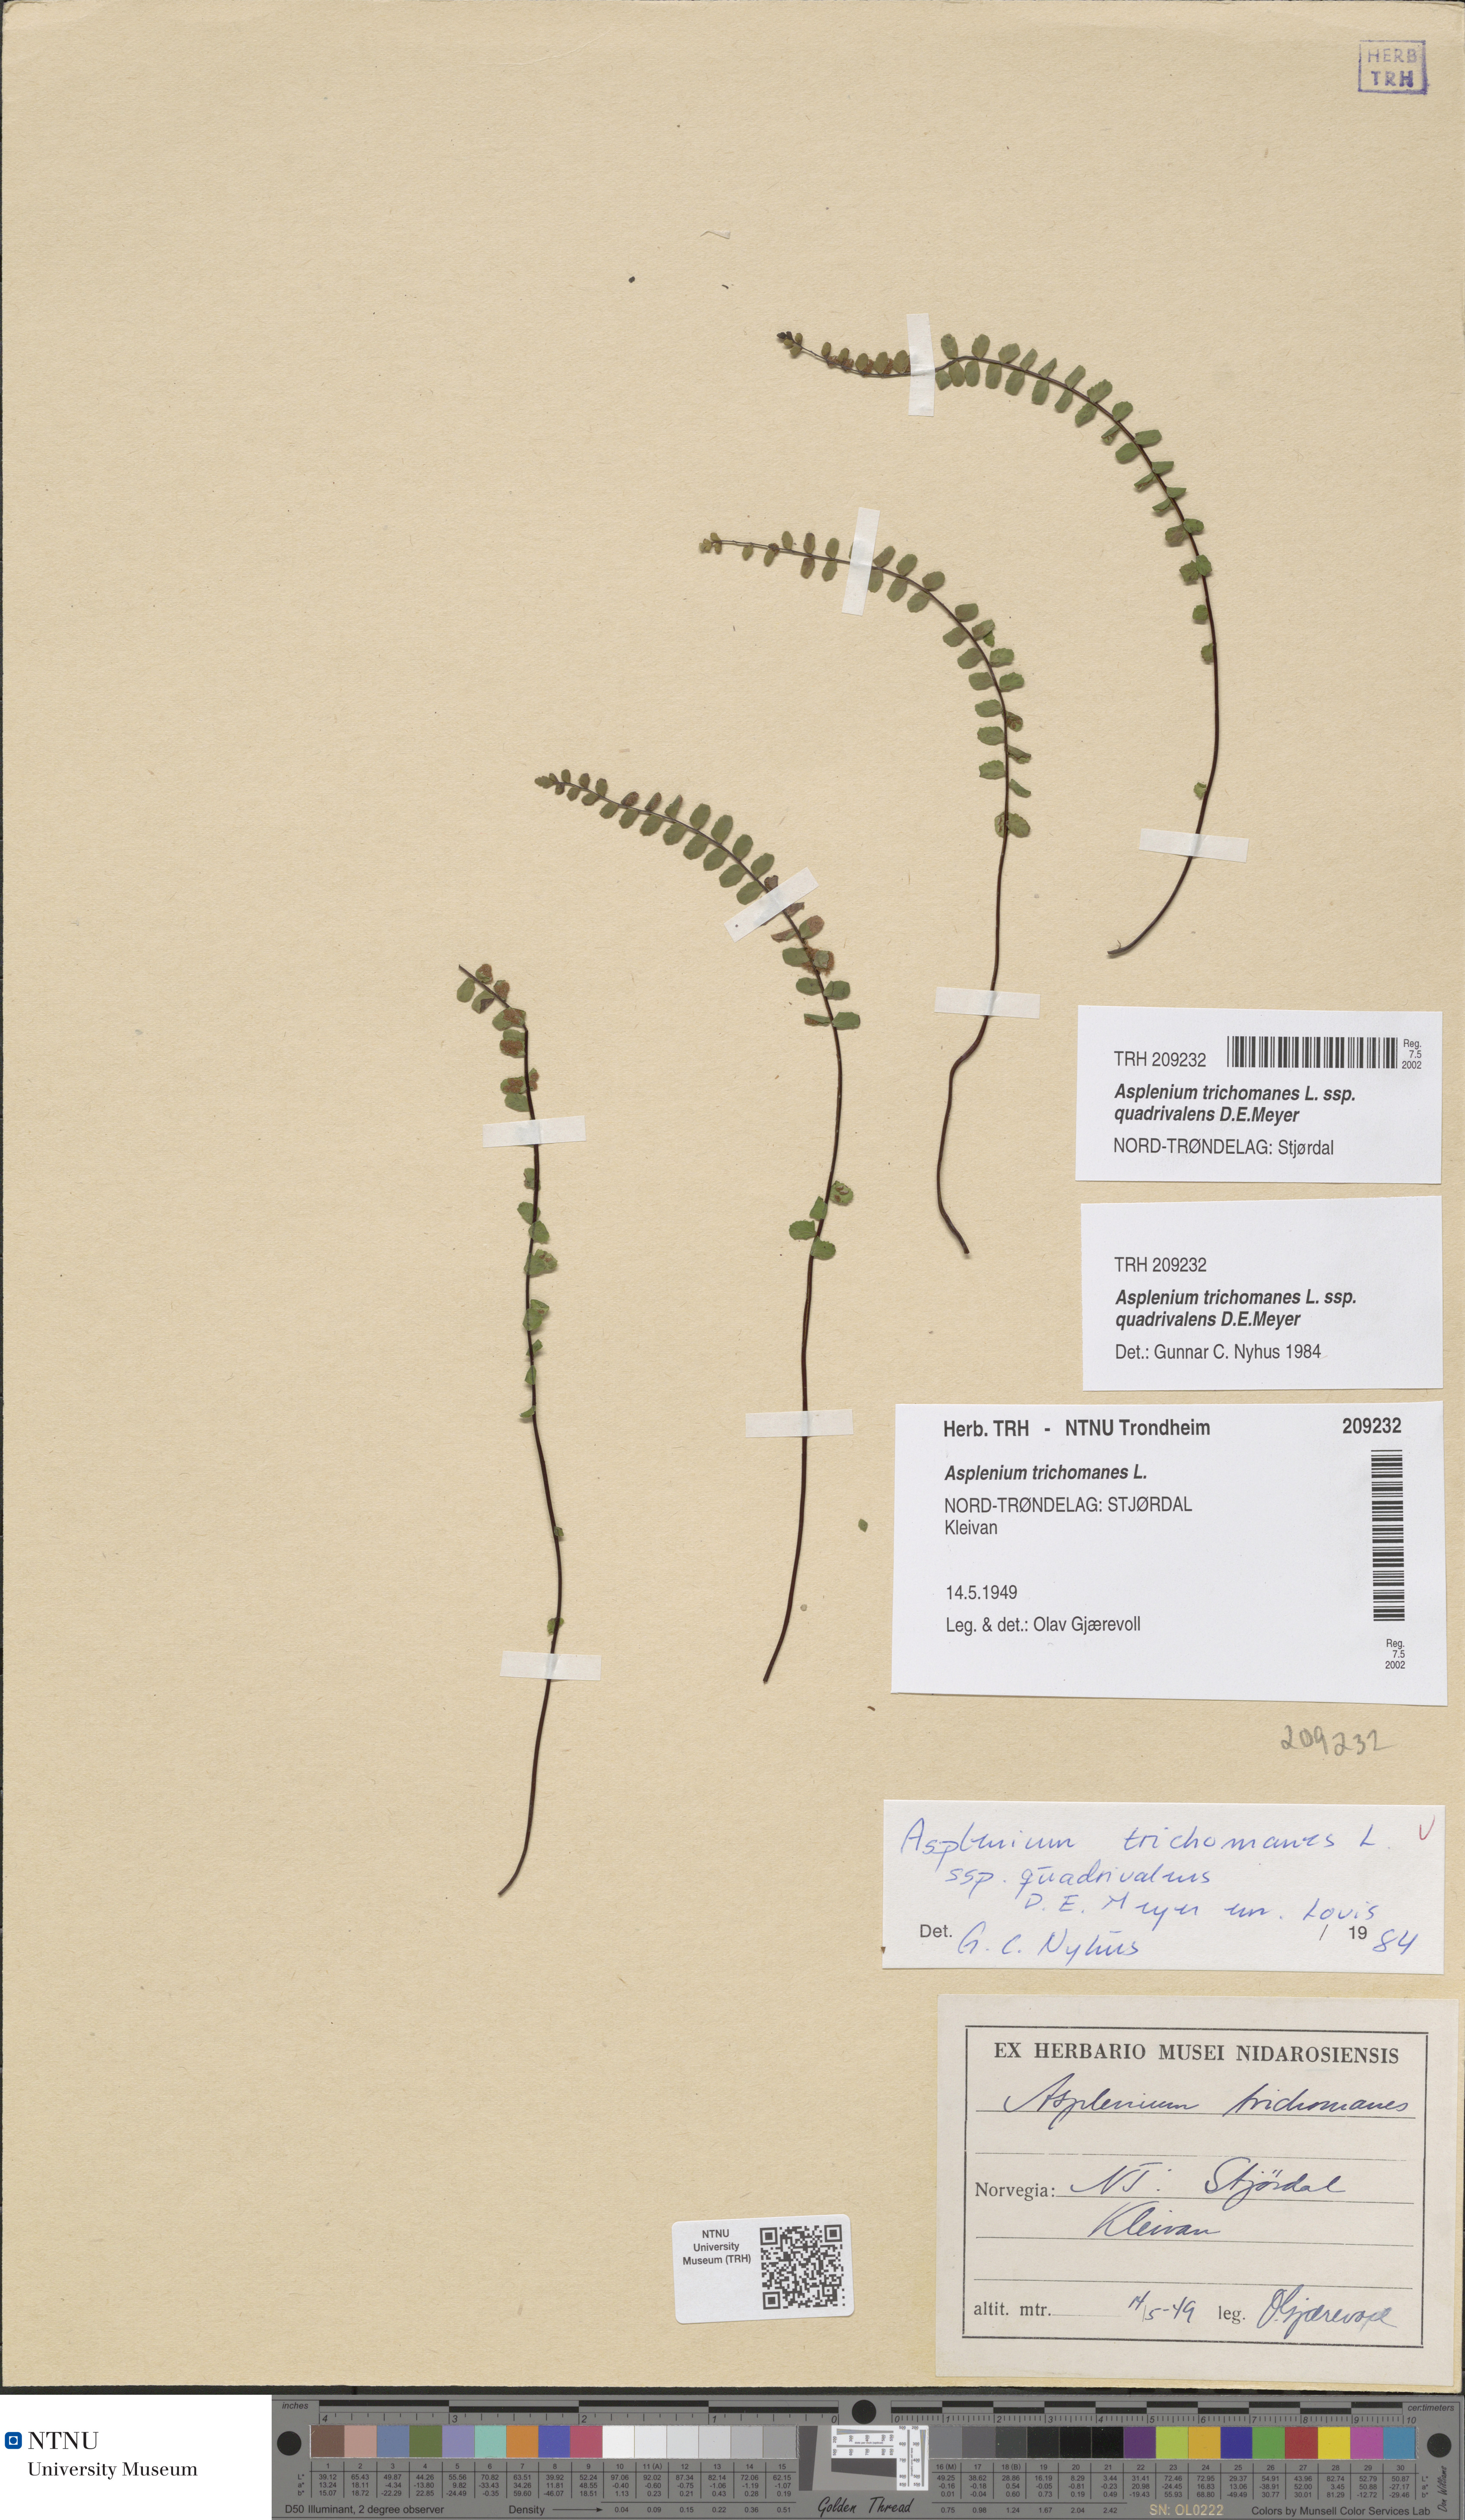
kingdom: Plantae
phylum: Tracheophyta
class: Polypodiopsida
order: Polypodiales
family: Aspleniaceae
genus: Asplenium
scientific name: Asplenium quadrivalens
